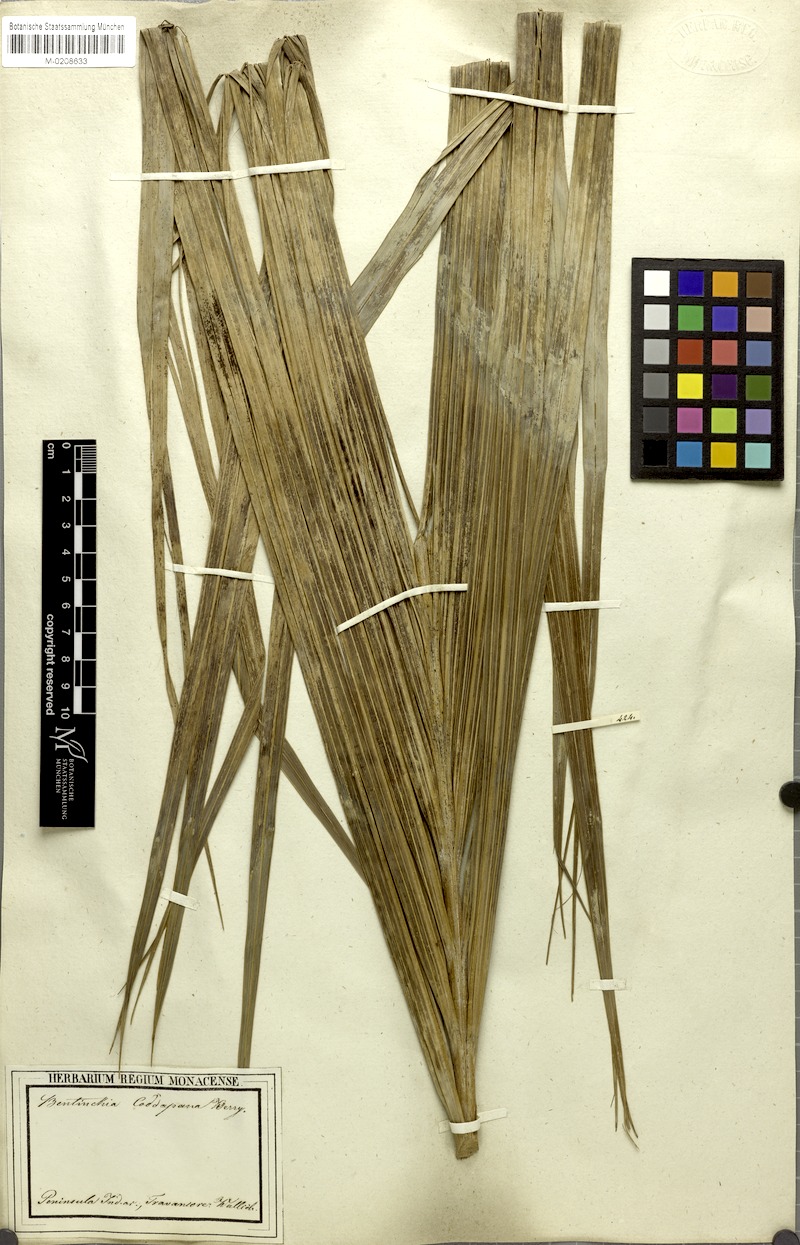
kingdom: Plantae
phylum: Tracheophyta
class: Liliopsida
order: Arecales
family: Arecaceae
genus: Bentinckia
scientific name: Bentinckia condapanna
